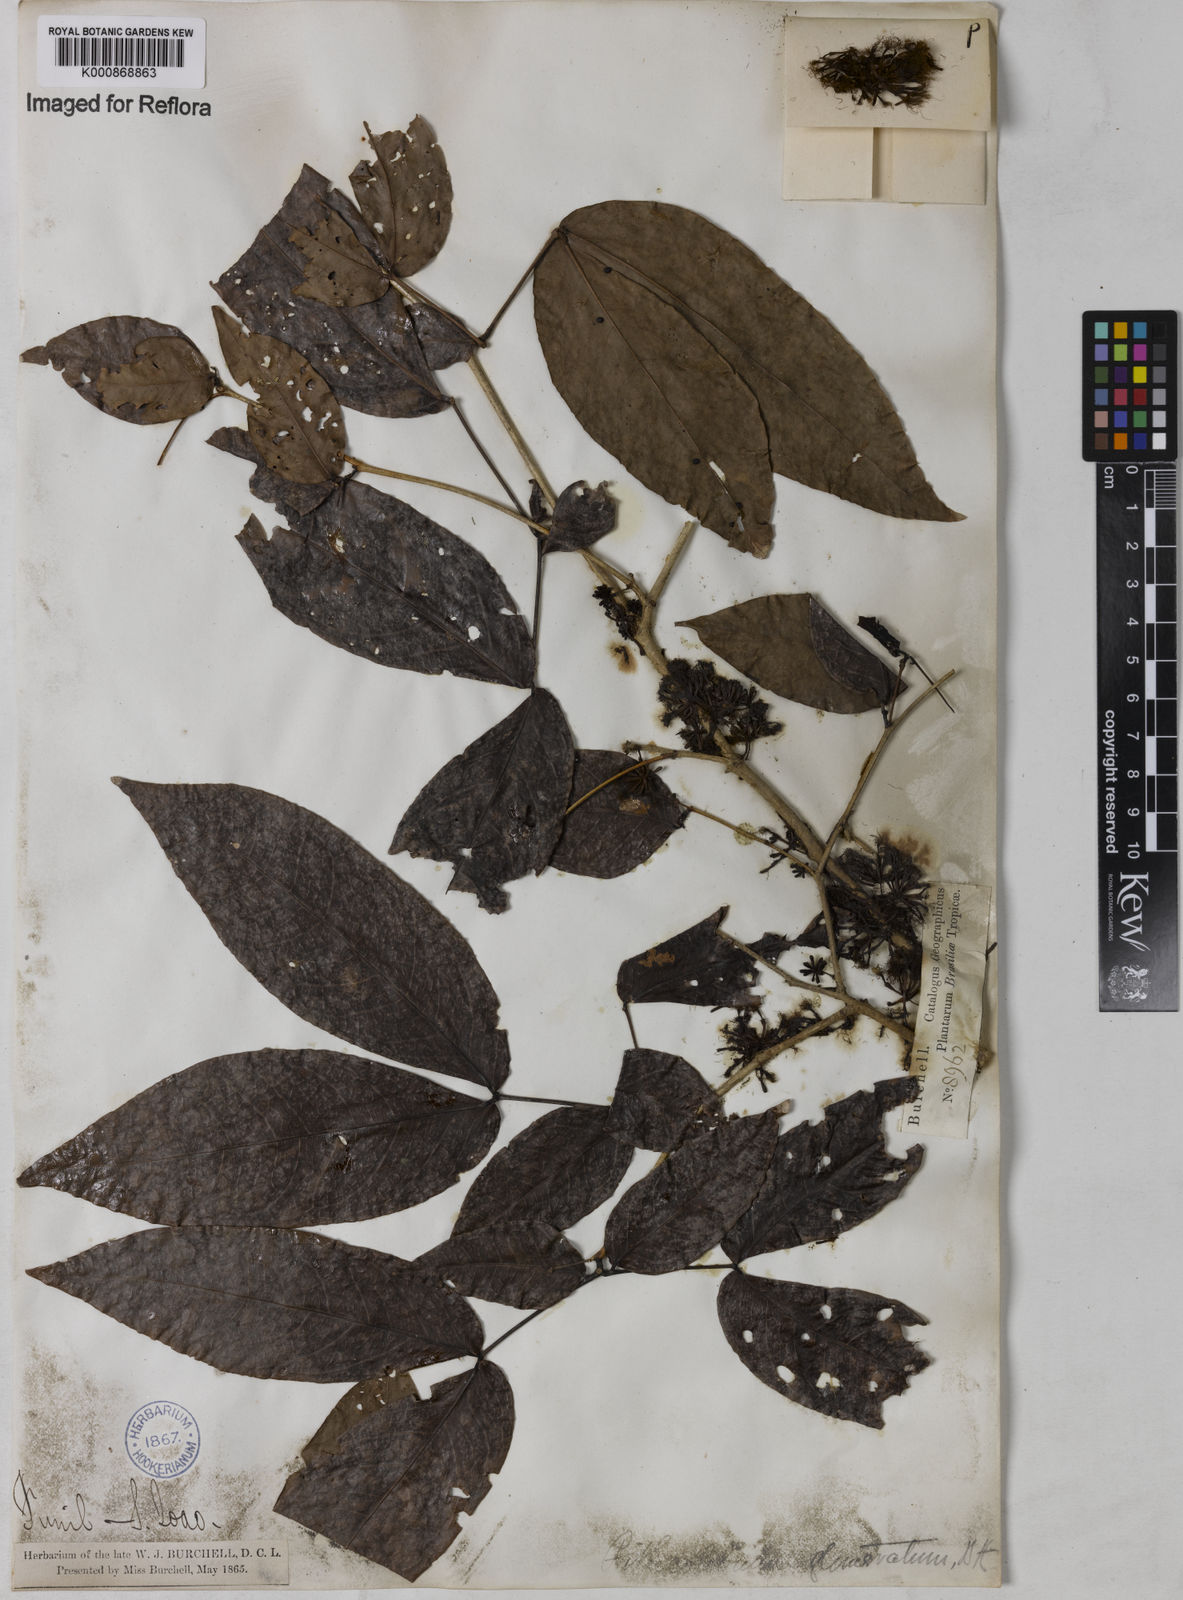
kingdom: Plantae
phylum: Tracheophyta
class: Magnoliopsida
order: Fabales
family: Fabaceae
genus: Zygia
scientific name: Zygia cataractae
